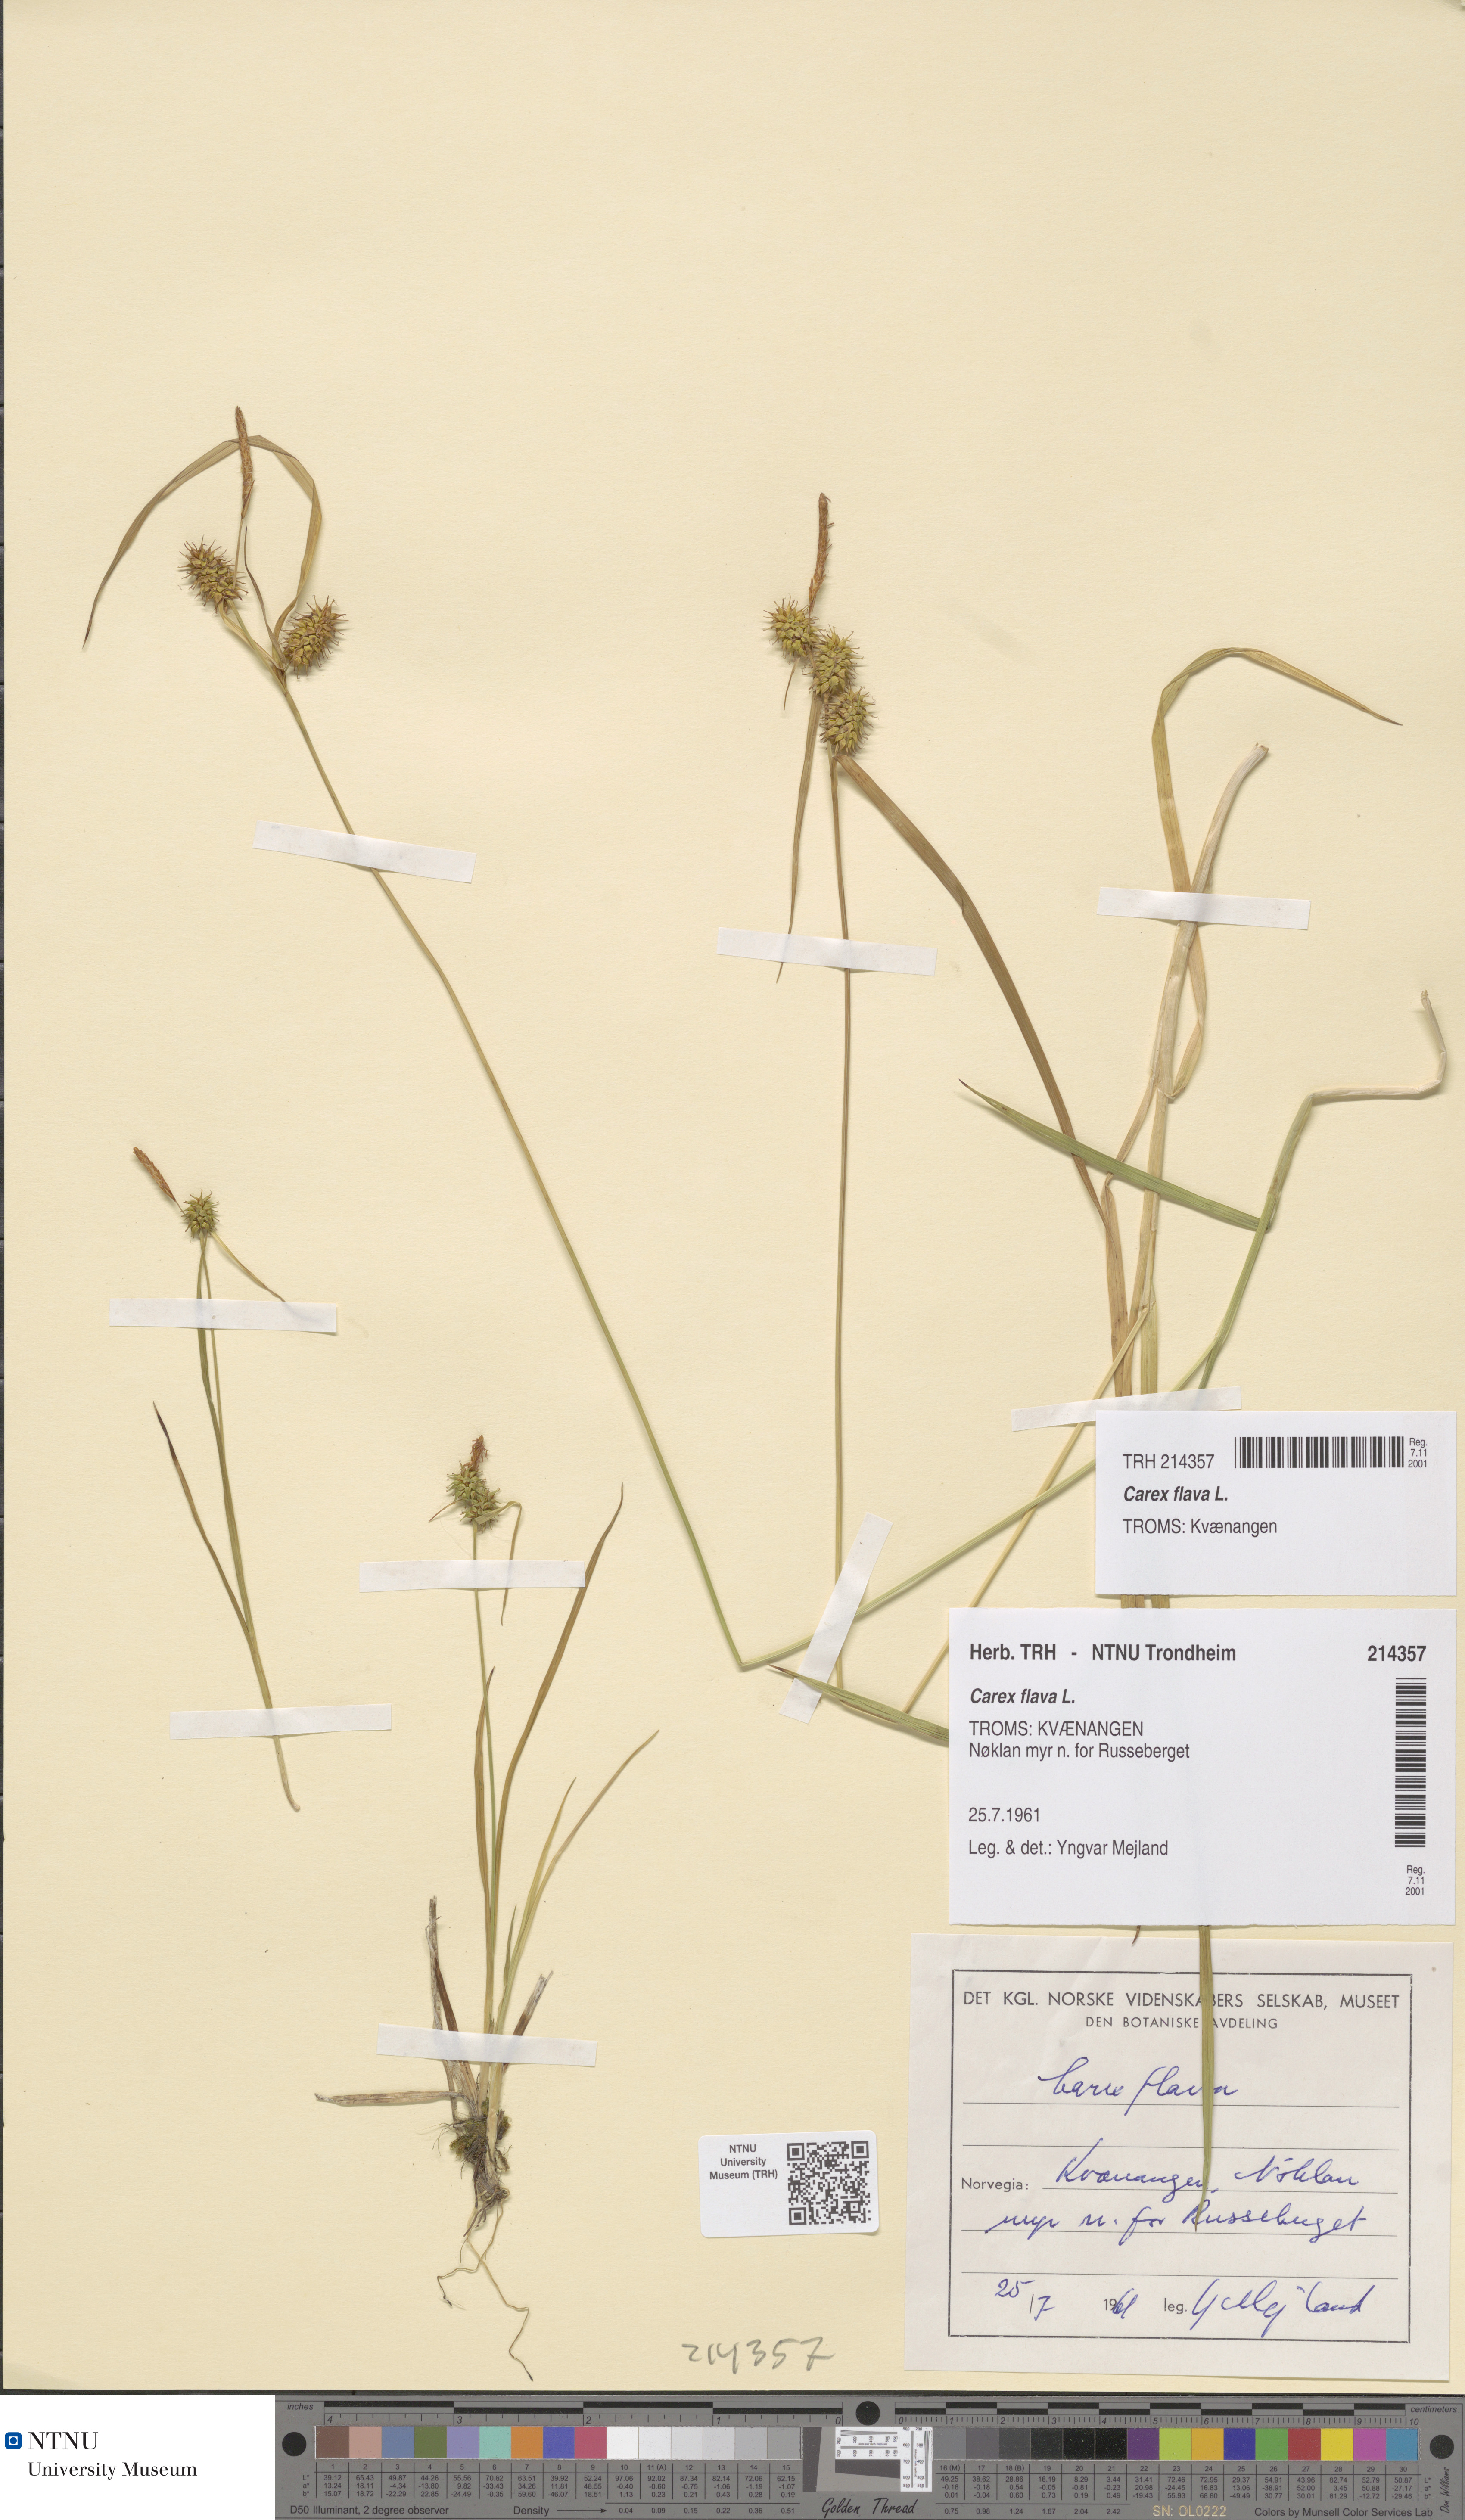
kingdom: Plantae
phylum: Tracheophyta
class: Liliopsida
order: Poales
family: Cyperaceae
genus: Carex
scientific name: Carex flava
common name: Large yellow-sedge
